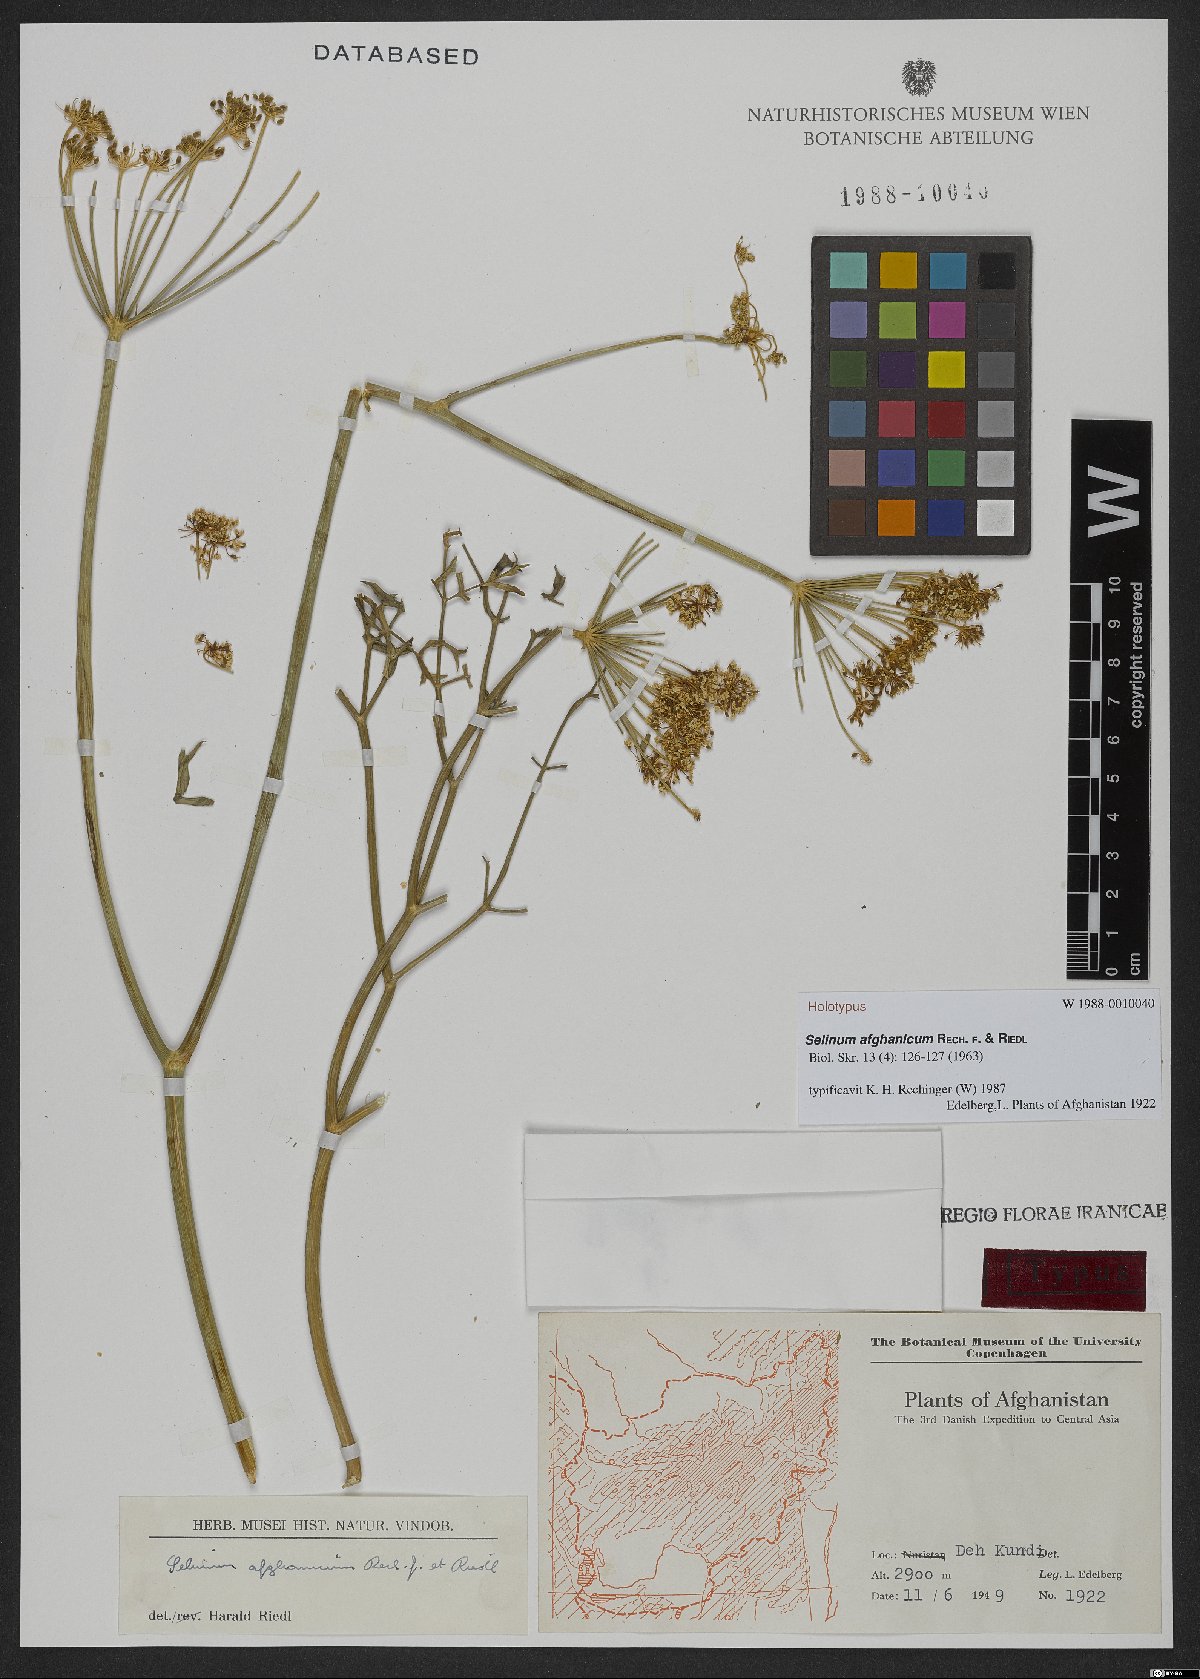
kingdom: Plantae
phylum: Tracheophyta
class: Magnoliopsida
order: Apiales
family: Apiaceae
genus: Cephalopodum
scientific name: Cephalopodum afghanicum
